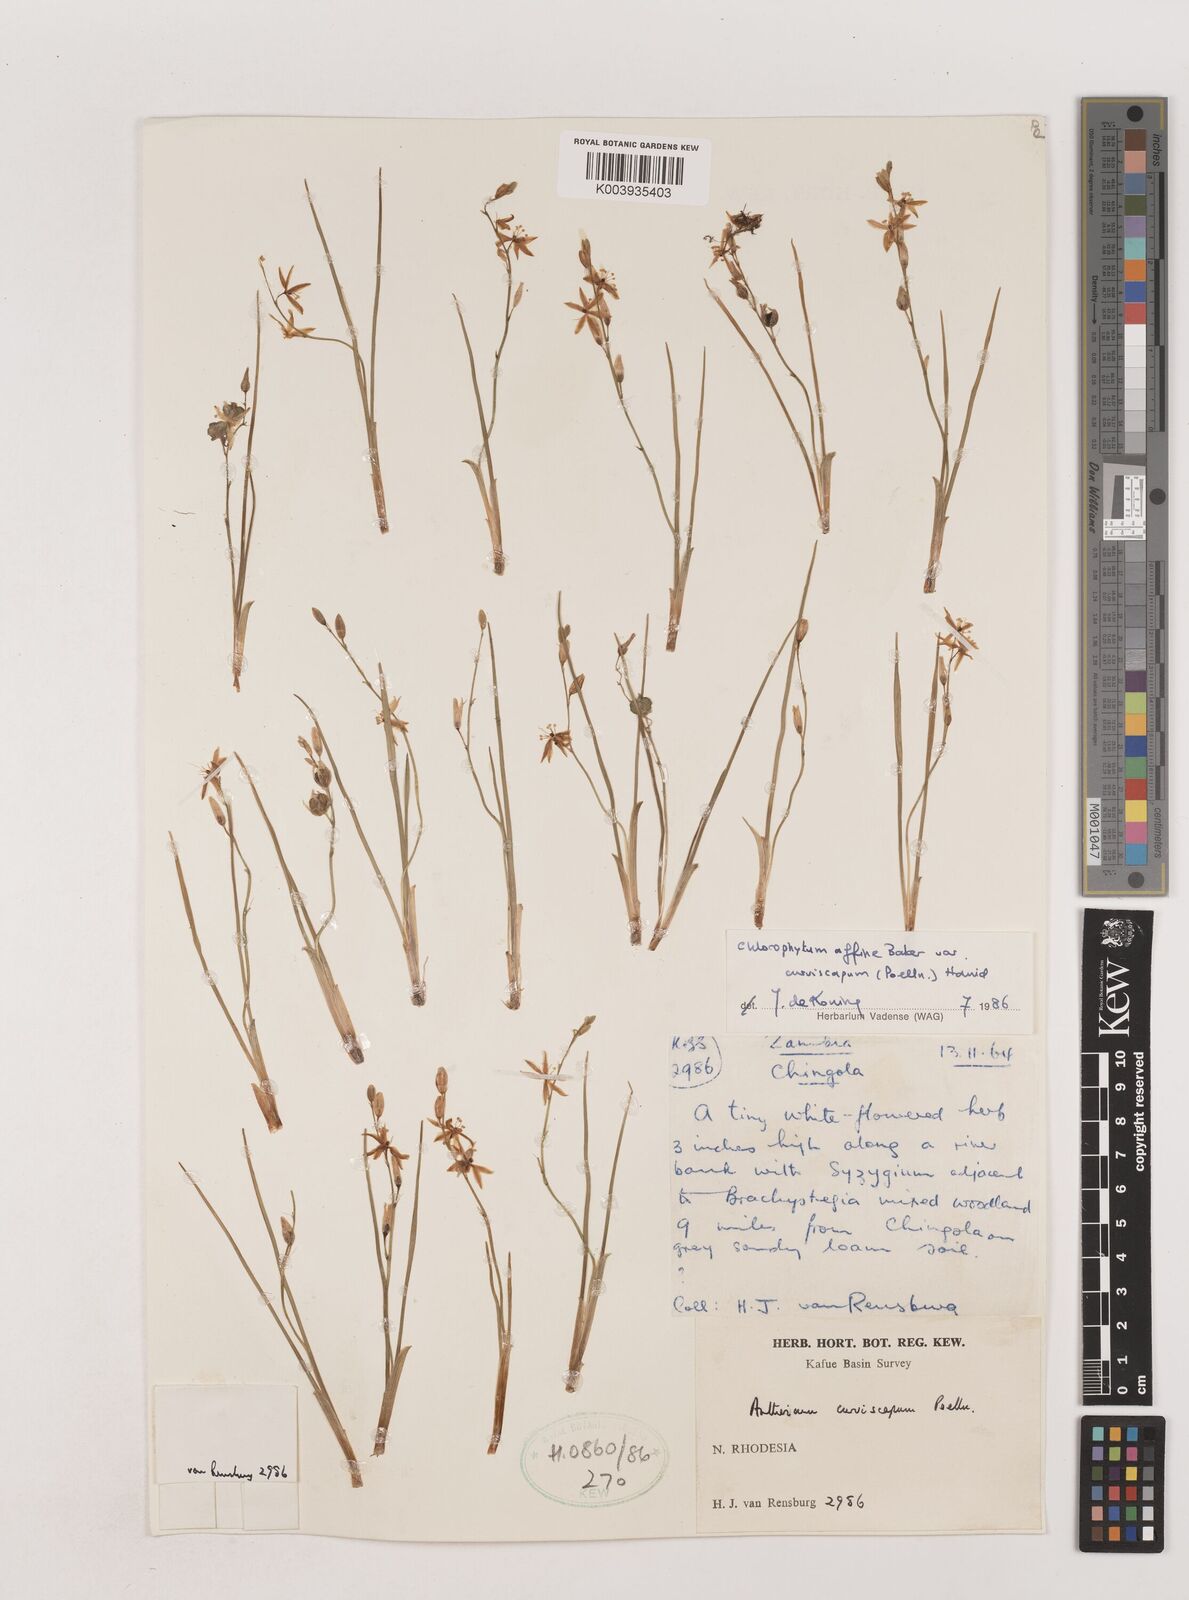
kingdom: Plantae
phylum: Tracheophyta
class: Liliopsida
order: Asparagales
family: Asparagaceae
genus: Chlorophytum
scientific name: Chlorophytum tordense
